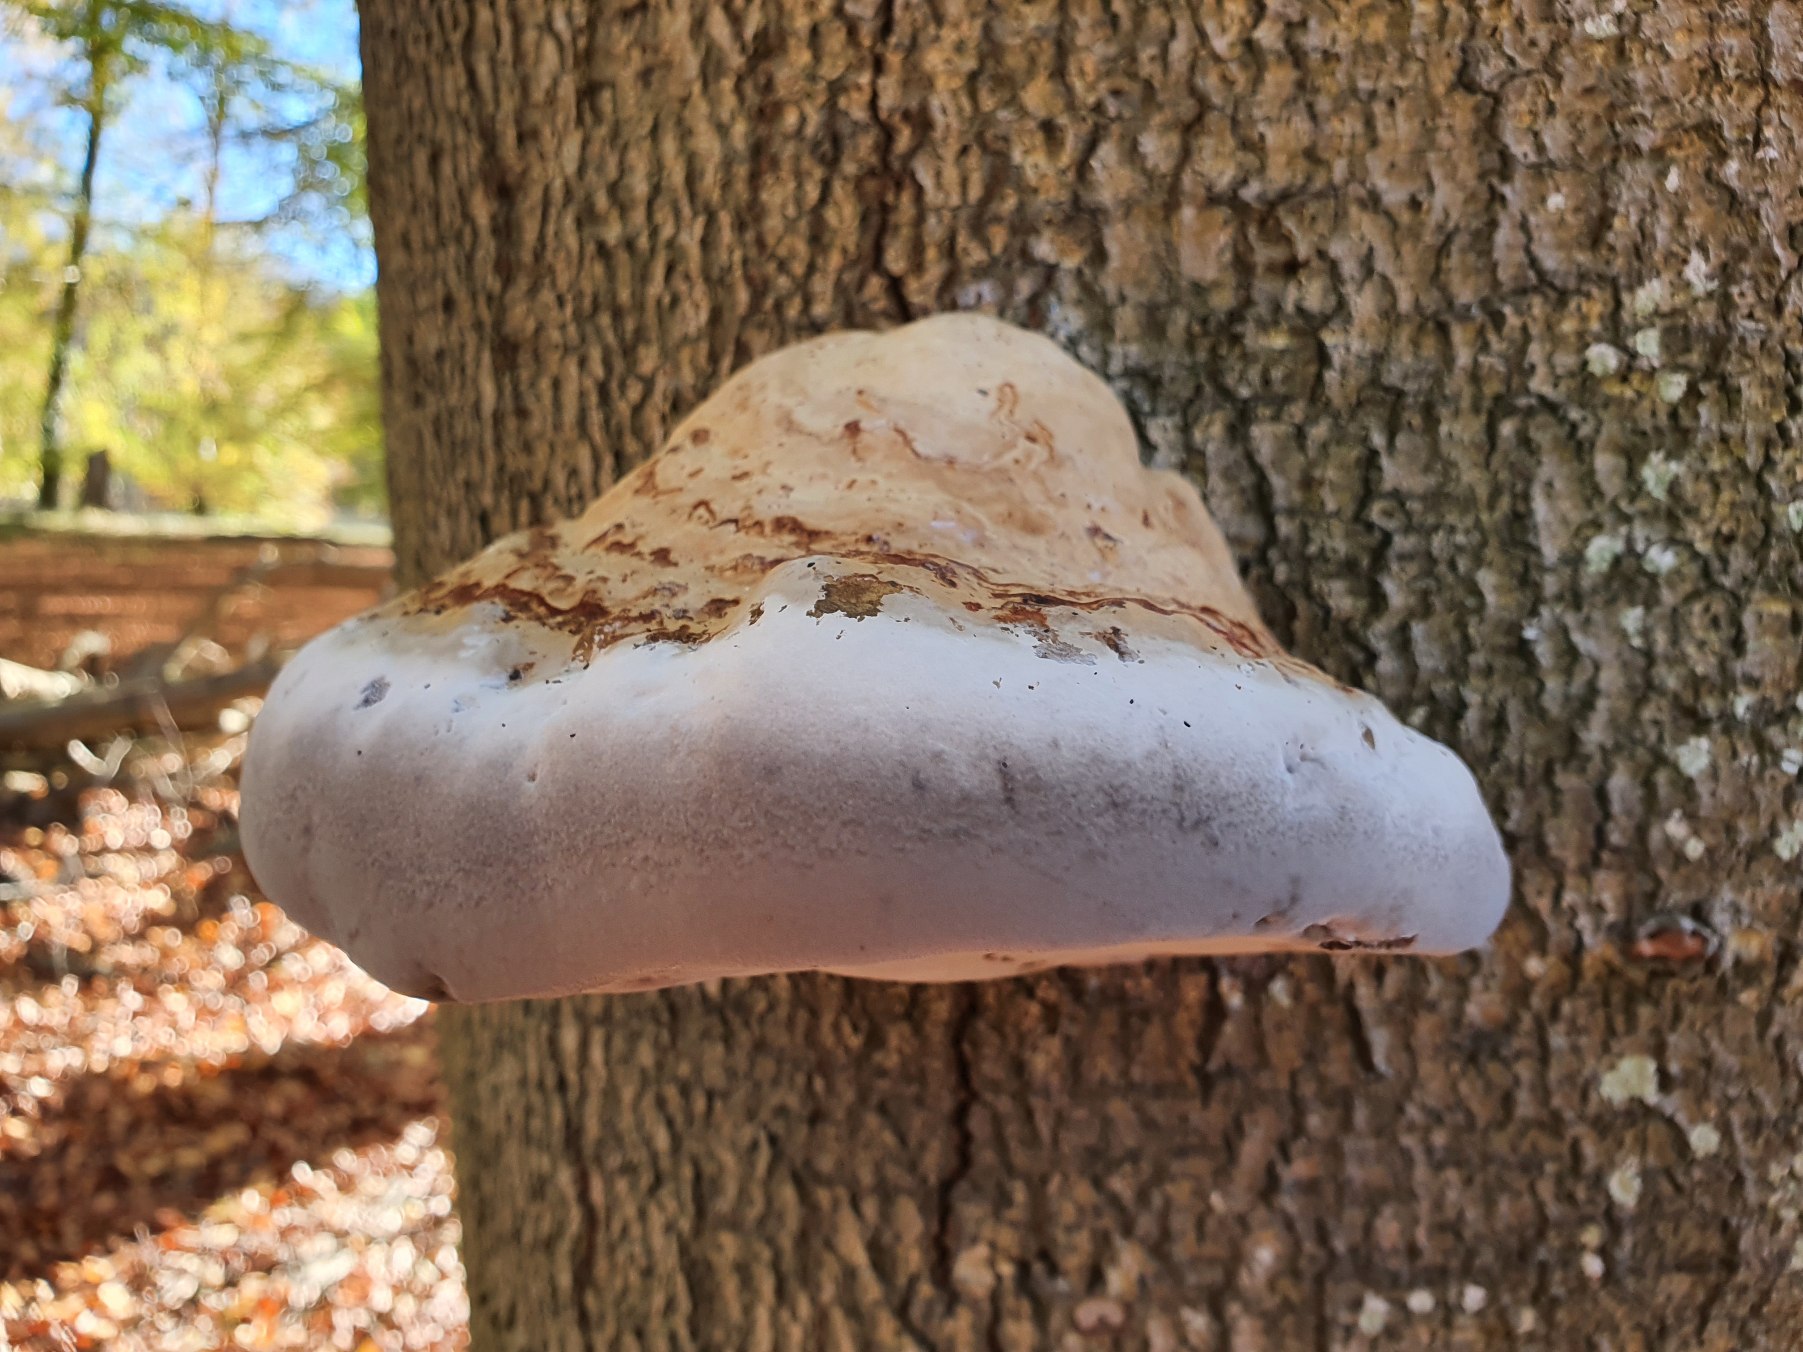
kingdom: Fungi
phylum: Basidiomycota
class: Agaricomycetes
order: Polyporales
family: Polyporaceae
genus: Fomes
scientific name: Fomes fomentarius
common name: Tøndersvamp
